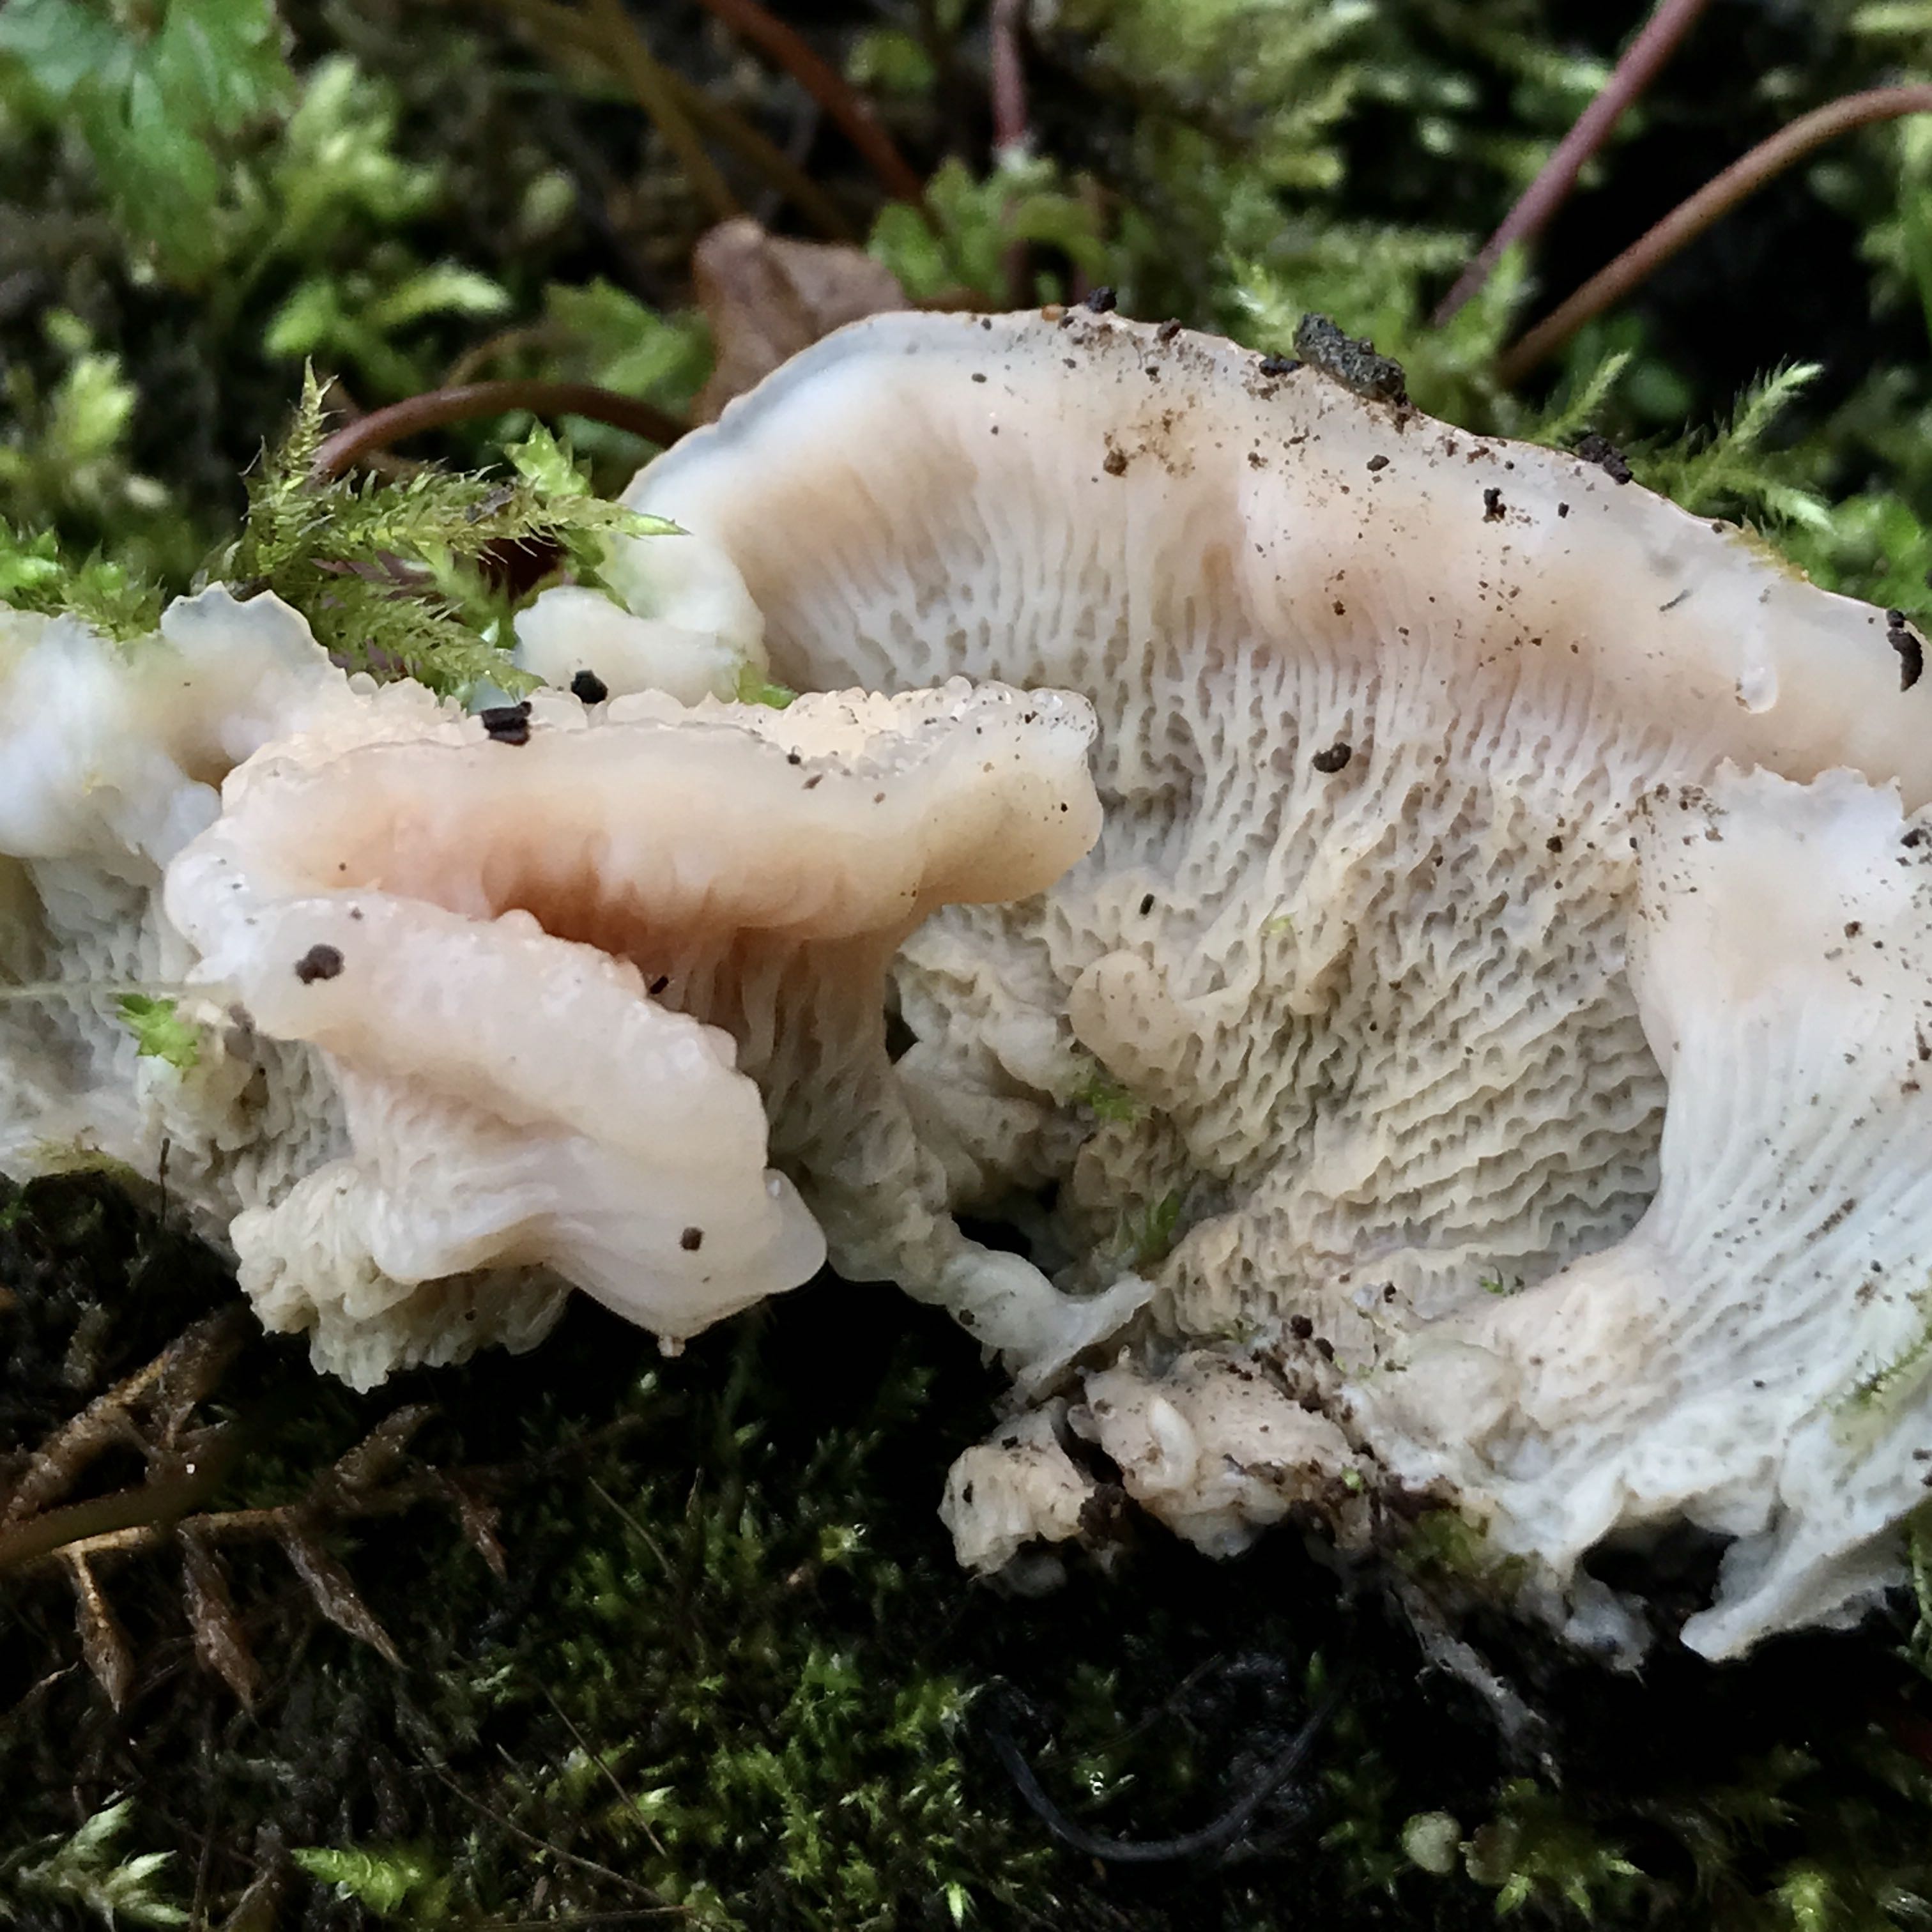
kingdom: Fungi
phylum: Basidiomycota
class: Agaricomycetes
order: Polyporales
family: Meruliaceae
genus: Phlebia
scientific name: Phlebia tremellosa
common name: bævrende åresvamp
